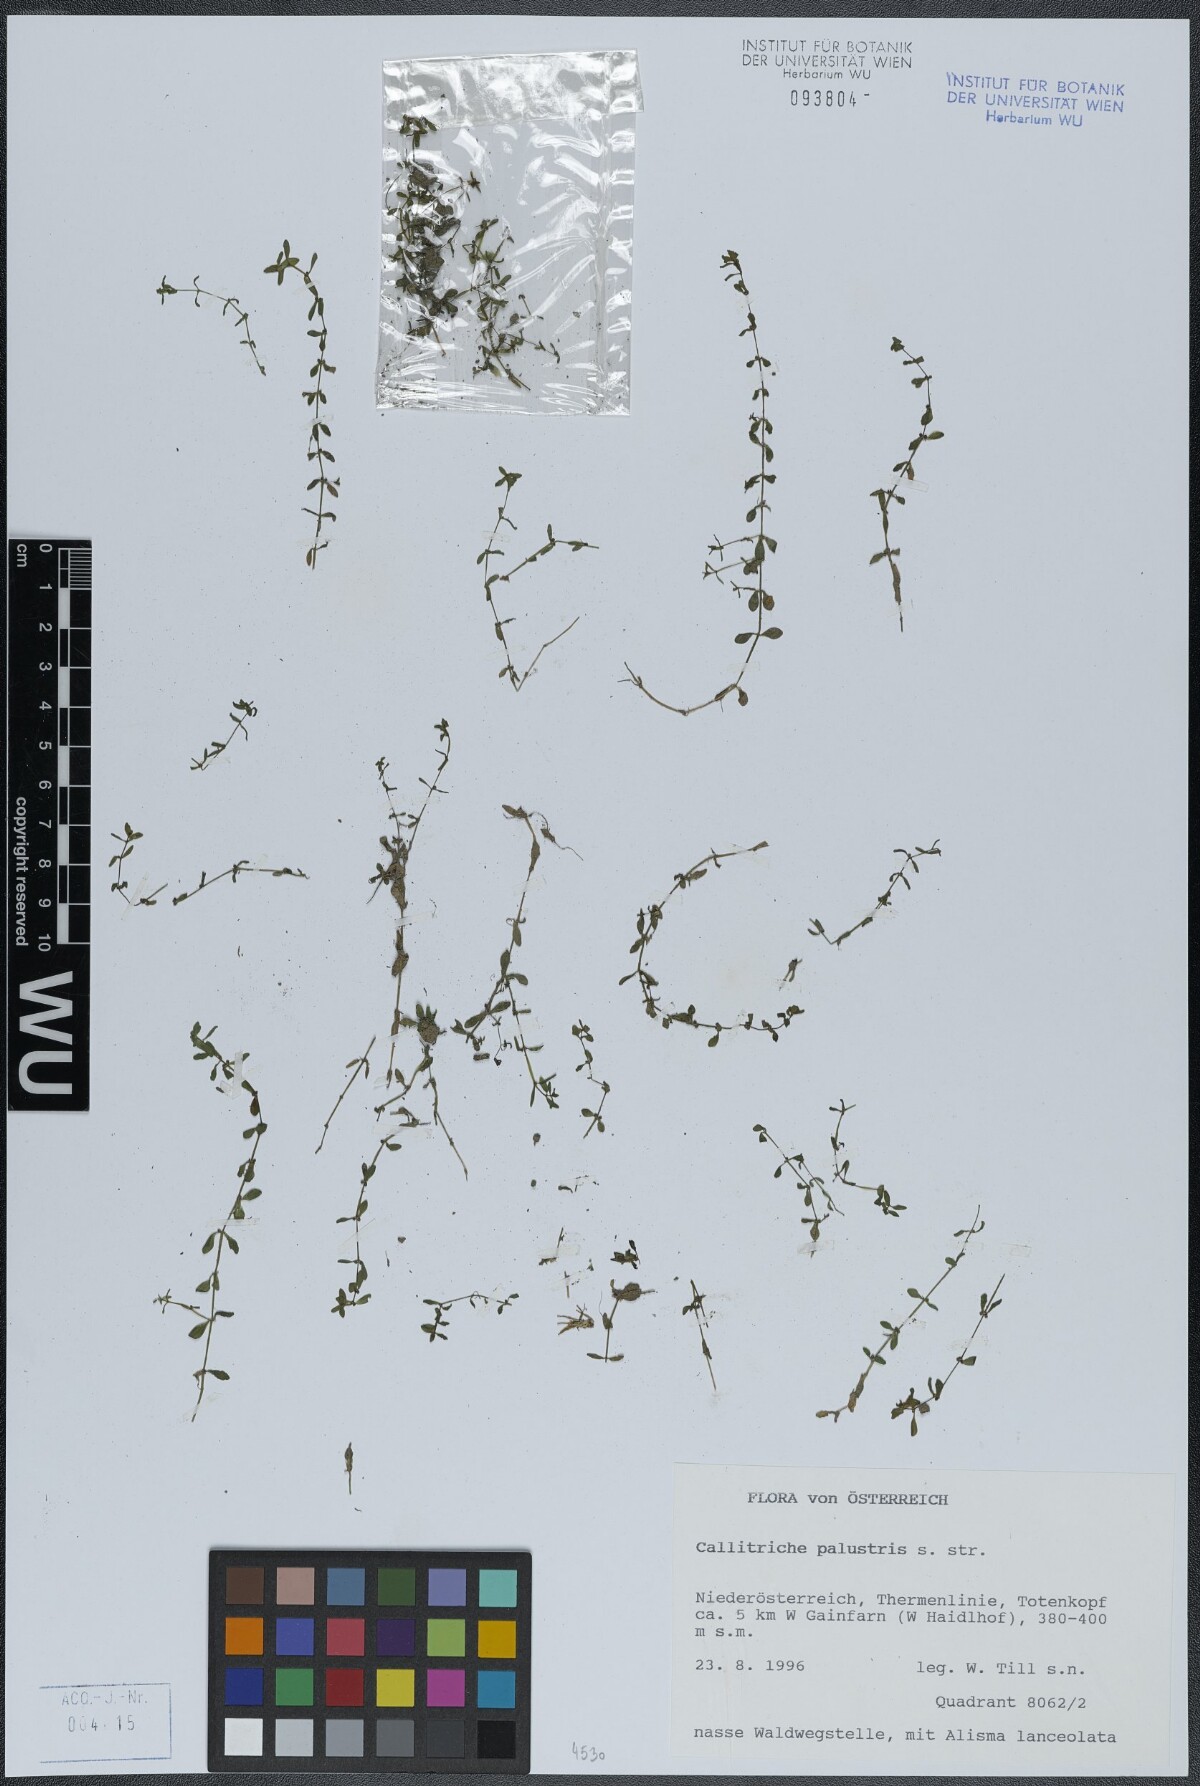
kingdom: Plantae
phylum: Tracheophyta
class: Magnoliopsida
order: Lamiales
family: Plantaginaceae
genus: Callitriche
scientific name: Callitriche palustris
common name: Spring water-starwort
